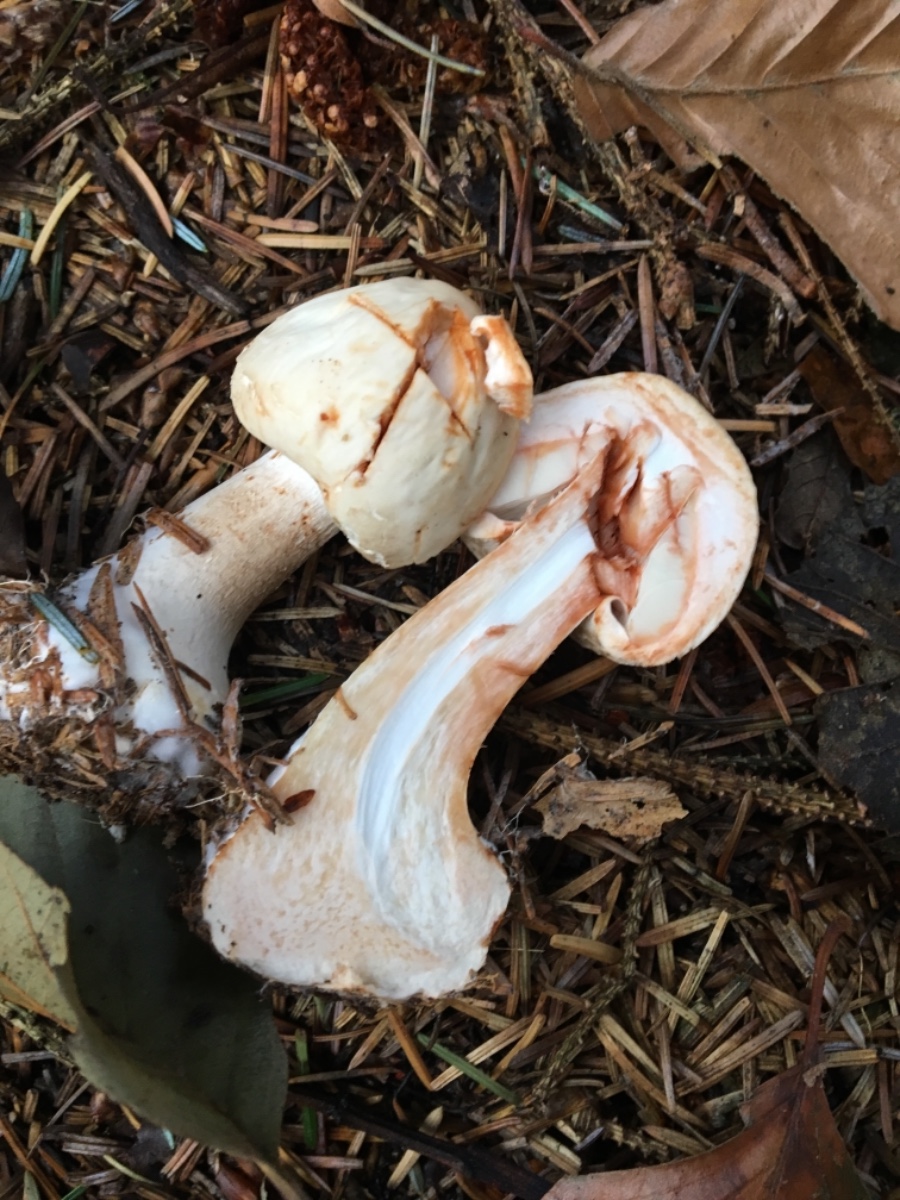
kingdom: Fungi
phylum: Basidiomycota
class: Agaricomycetes
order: Agaricales
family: Agaricaceae
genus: Chlorophyllum
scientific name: Chlorophyllum
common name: rabarberhat
